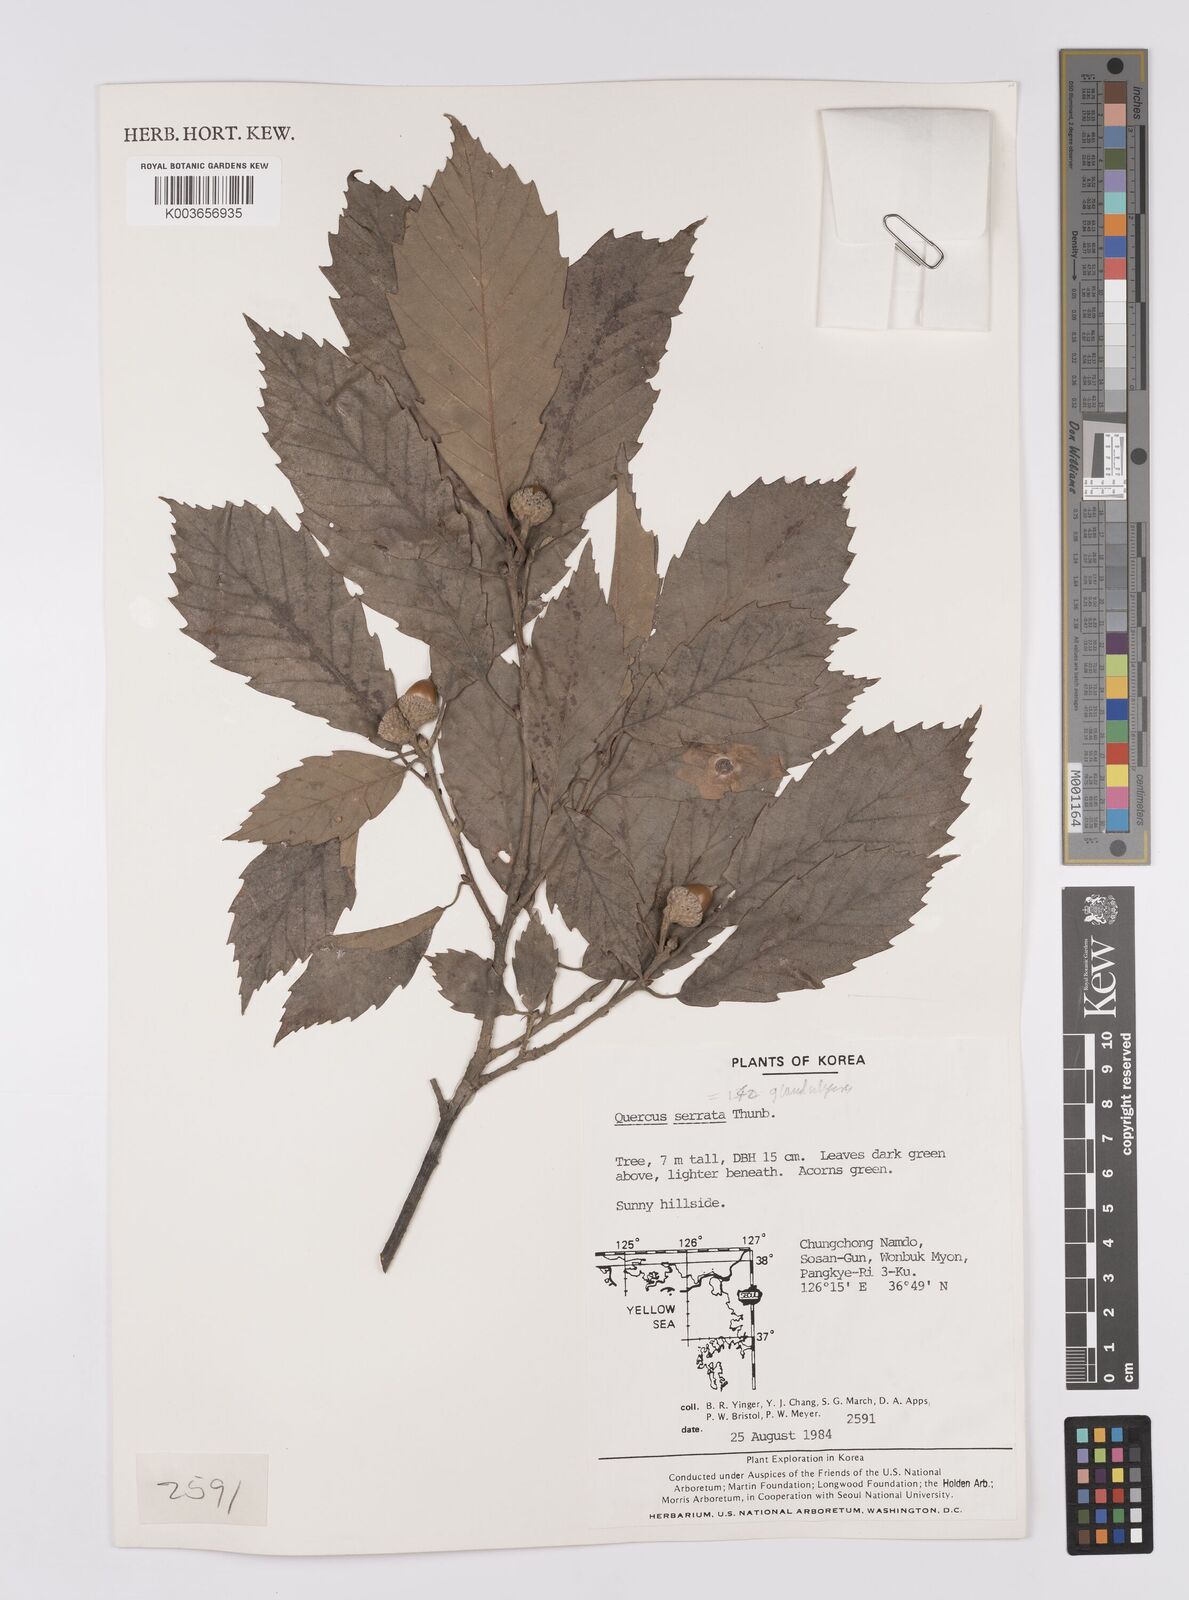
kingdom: Plantae
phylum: Tracheophyta
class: Magnoliopsida
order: Fagales
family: Fagaceae
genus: Quercus
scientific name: Quercus serrata
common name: Bao li
